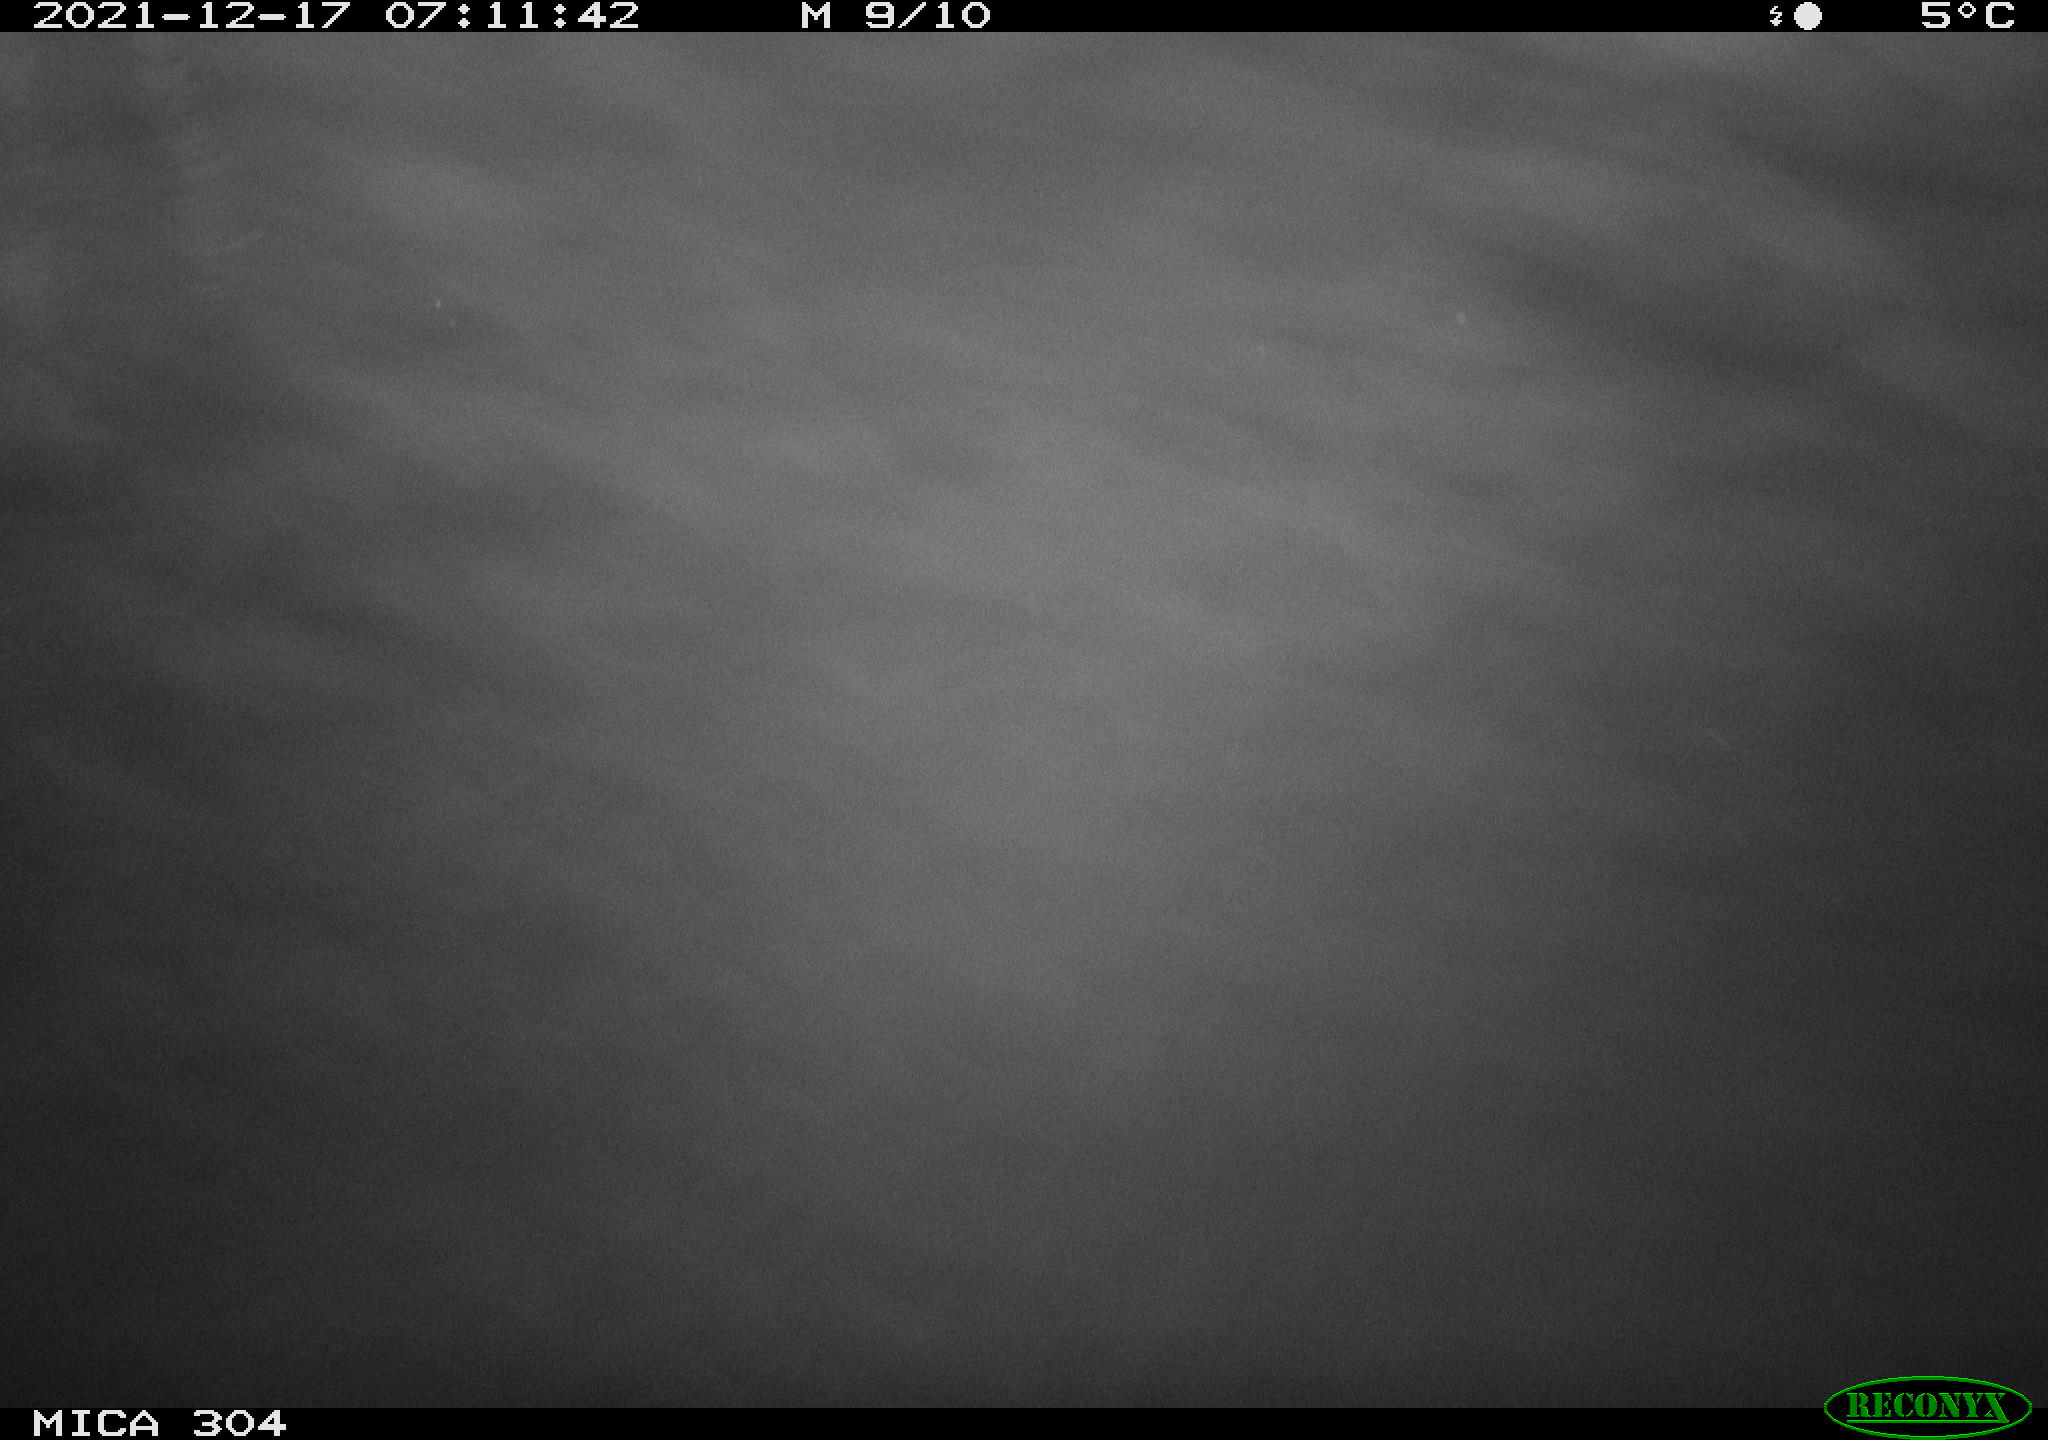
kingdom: Animalia
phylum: Chordata
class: Mammalia
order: Rodentia
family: Muridae
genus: Rattus
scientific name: Rattus norvegicus
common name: Brown rat
